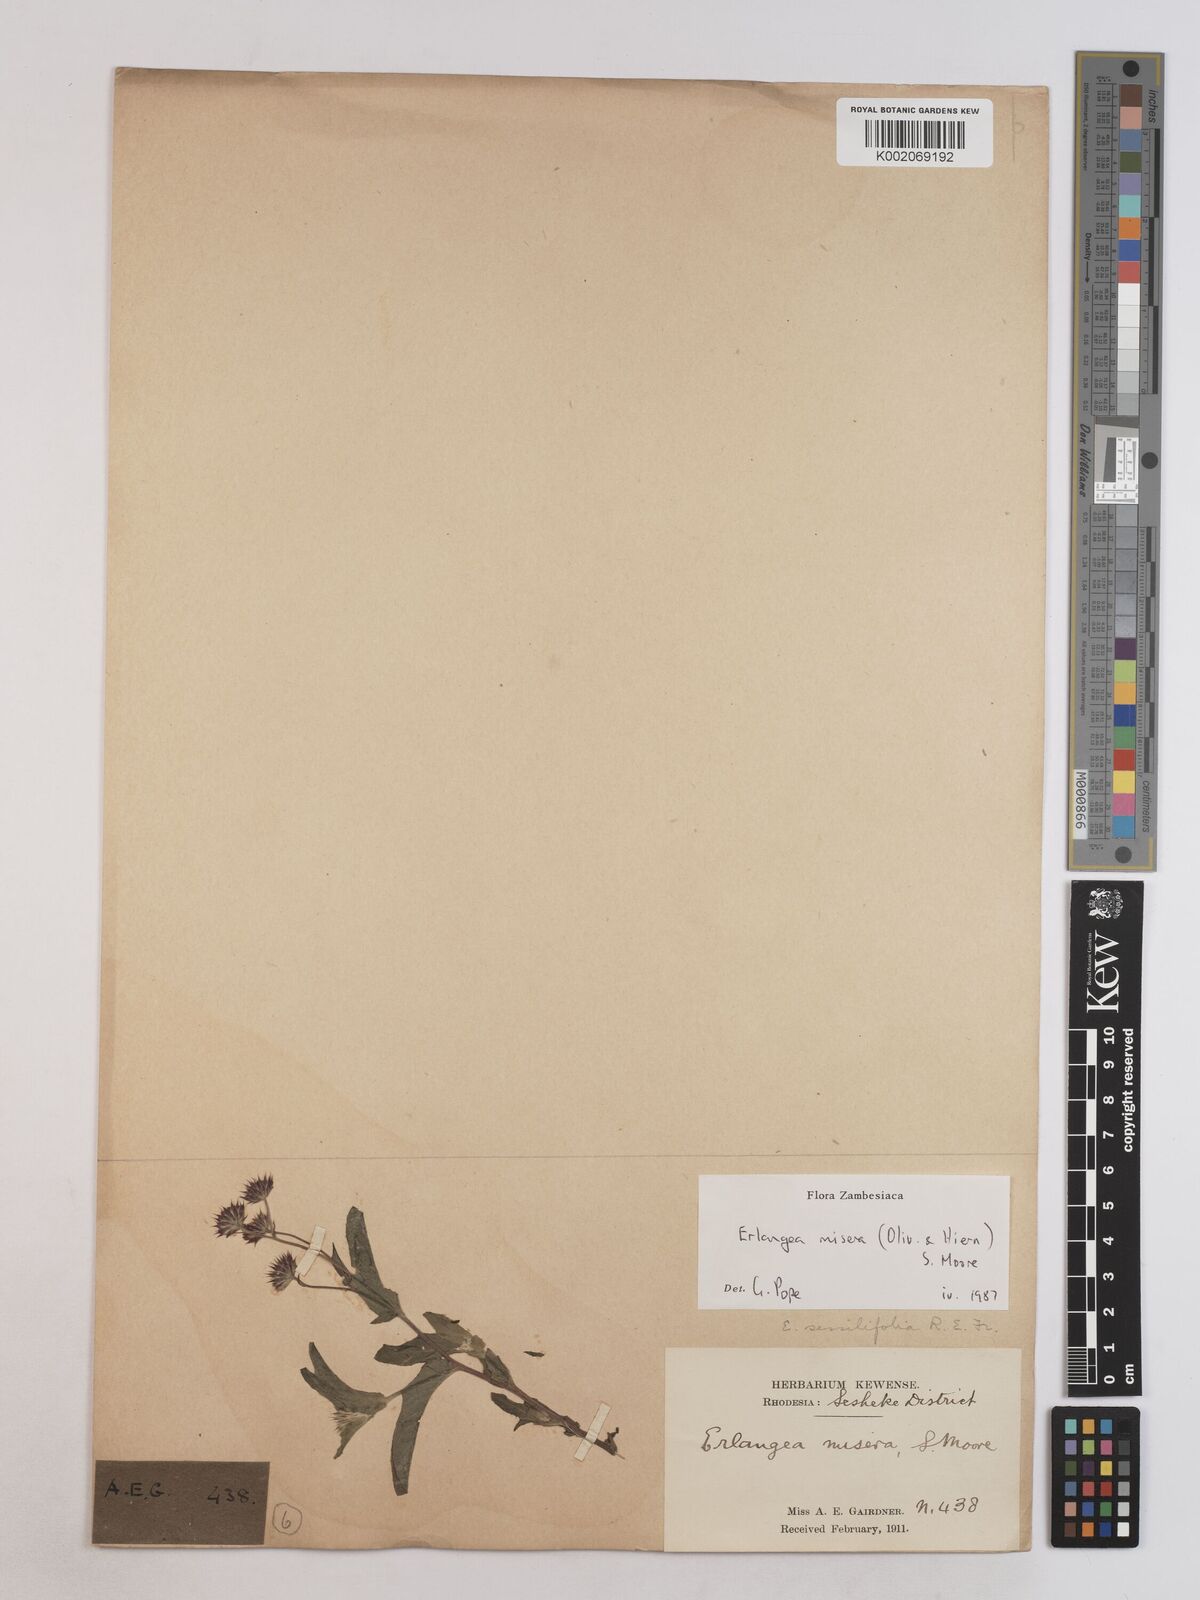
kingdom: Plantae
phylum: Tracheophyta
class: Magnoliopsida
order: Asterales
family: Asteraceae
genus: Erlangea
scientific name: Erlangea misera
